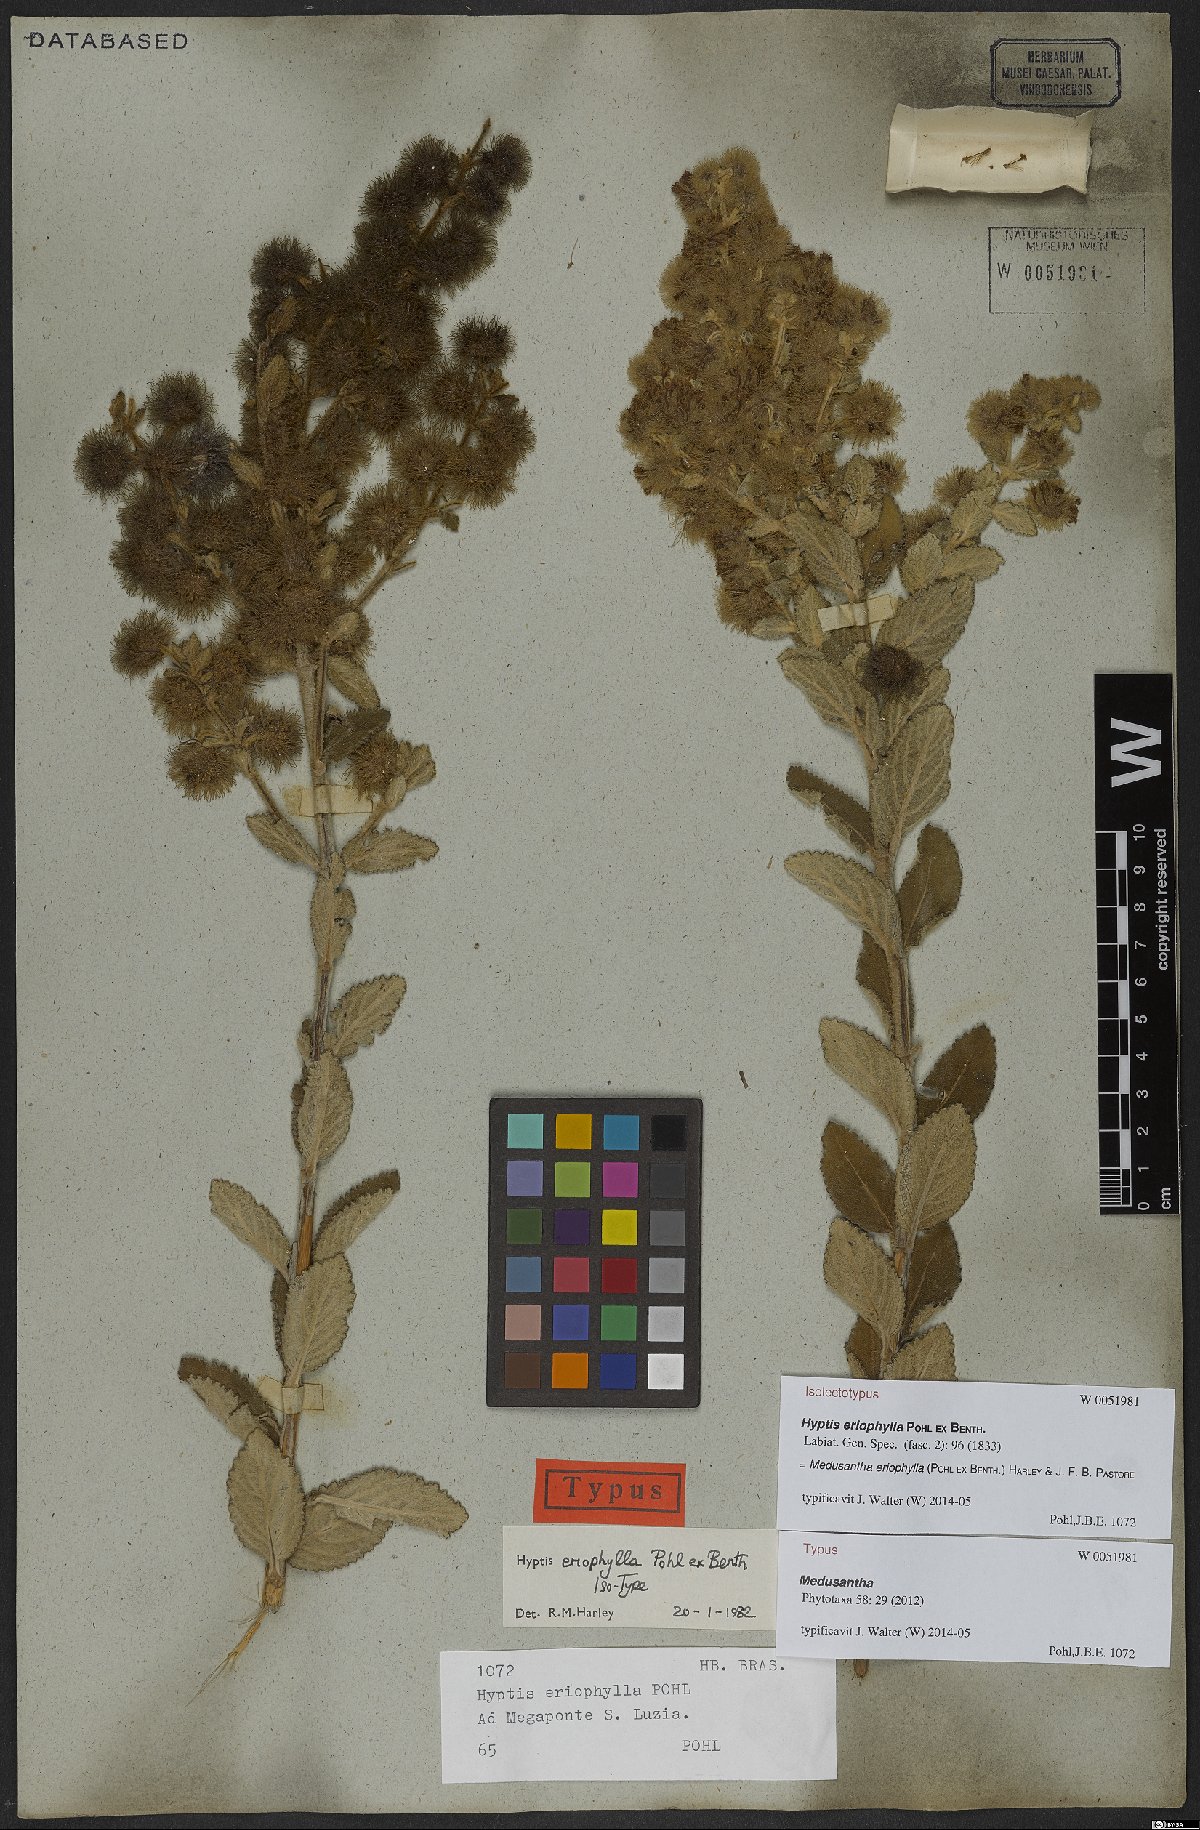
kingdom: Plantae
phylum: Tracheophyta
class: Magnoliopsida
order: Lamiales
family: Lamiaceae
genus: Medusantha
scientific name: Medusantha eriophylla
